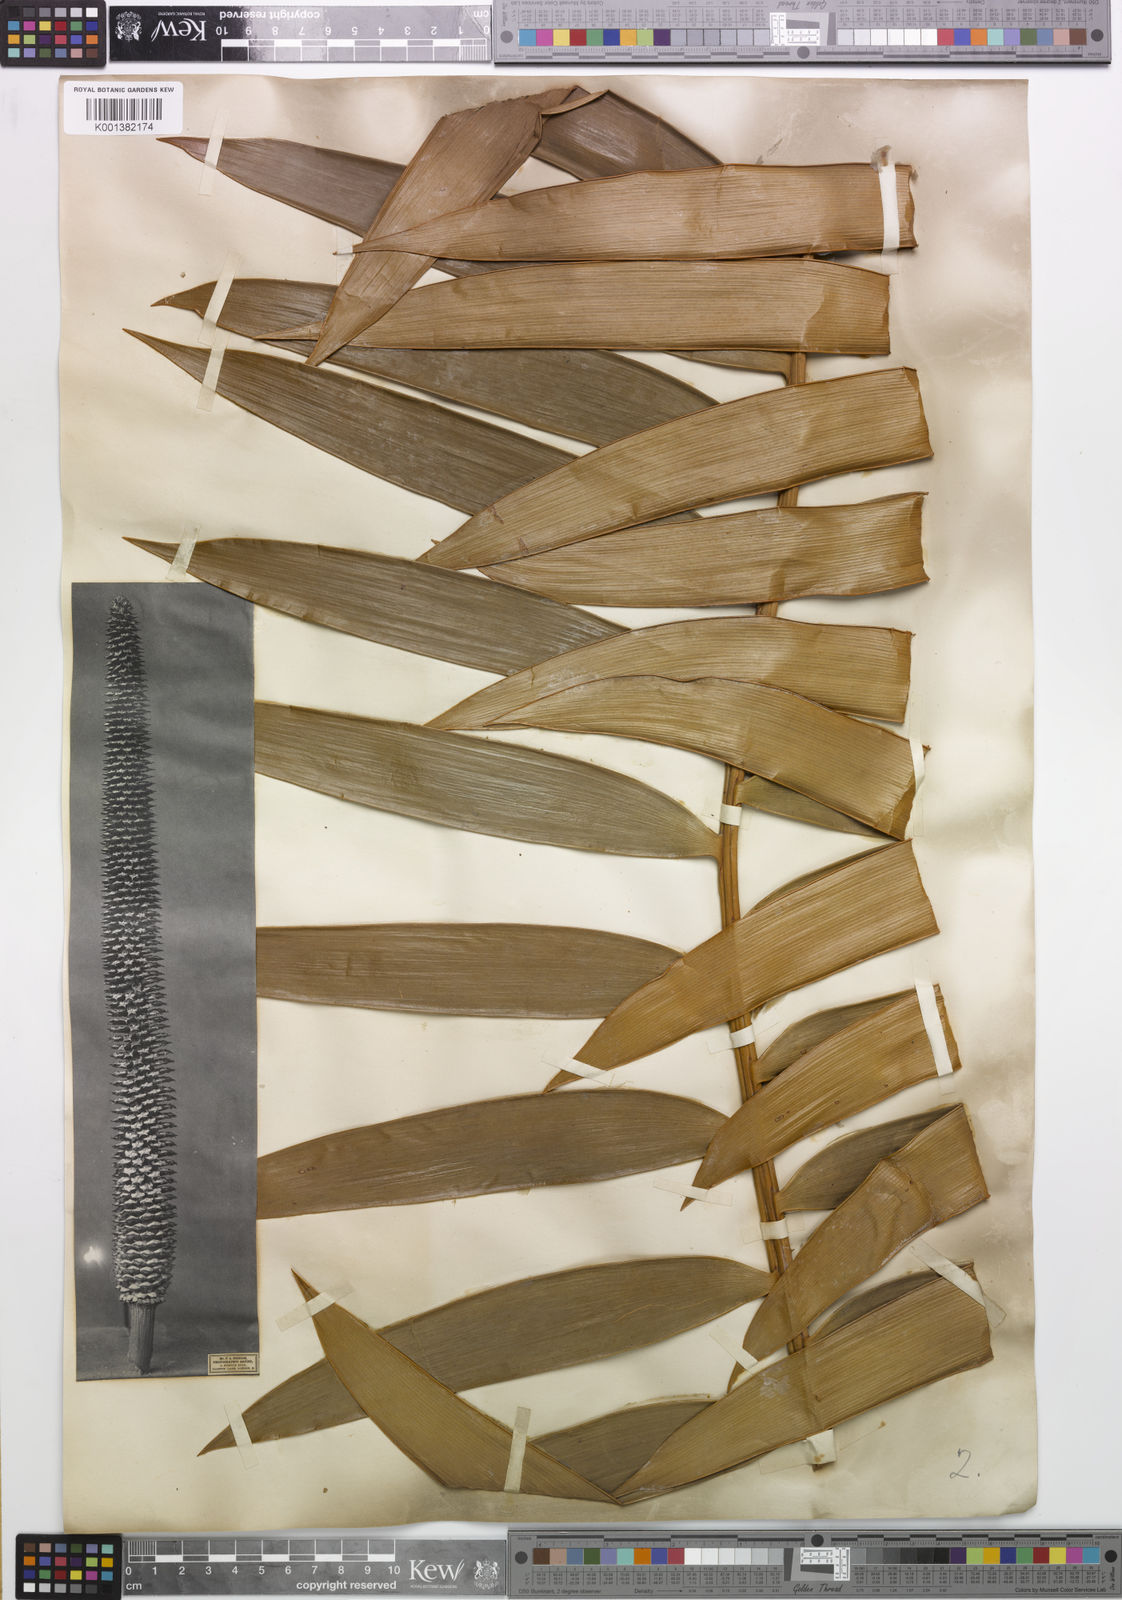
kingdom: Plantae
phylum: Tracheophyta
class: Cycadopsida
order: Cycadales
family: Zamiaceae
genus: Ceratozamia
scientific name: Ceratozamia latifolia
